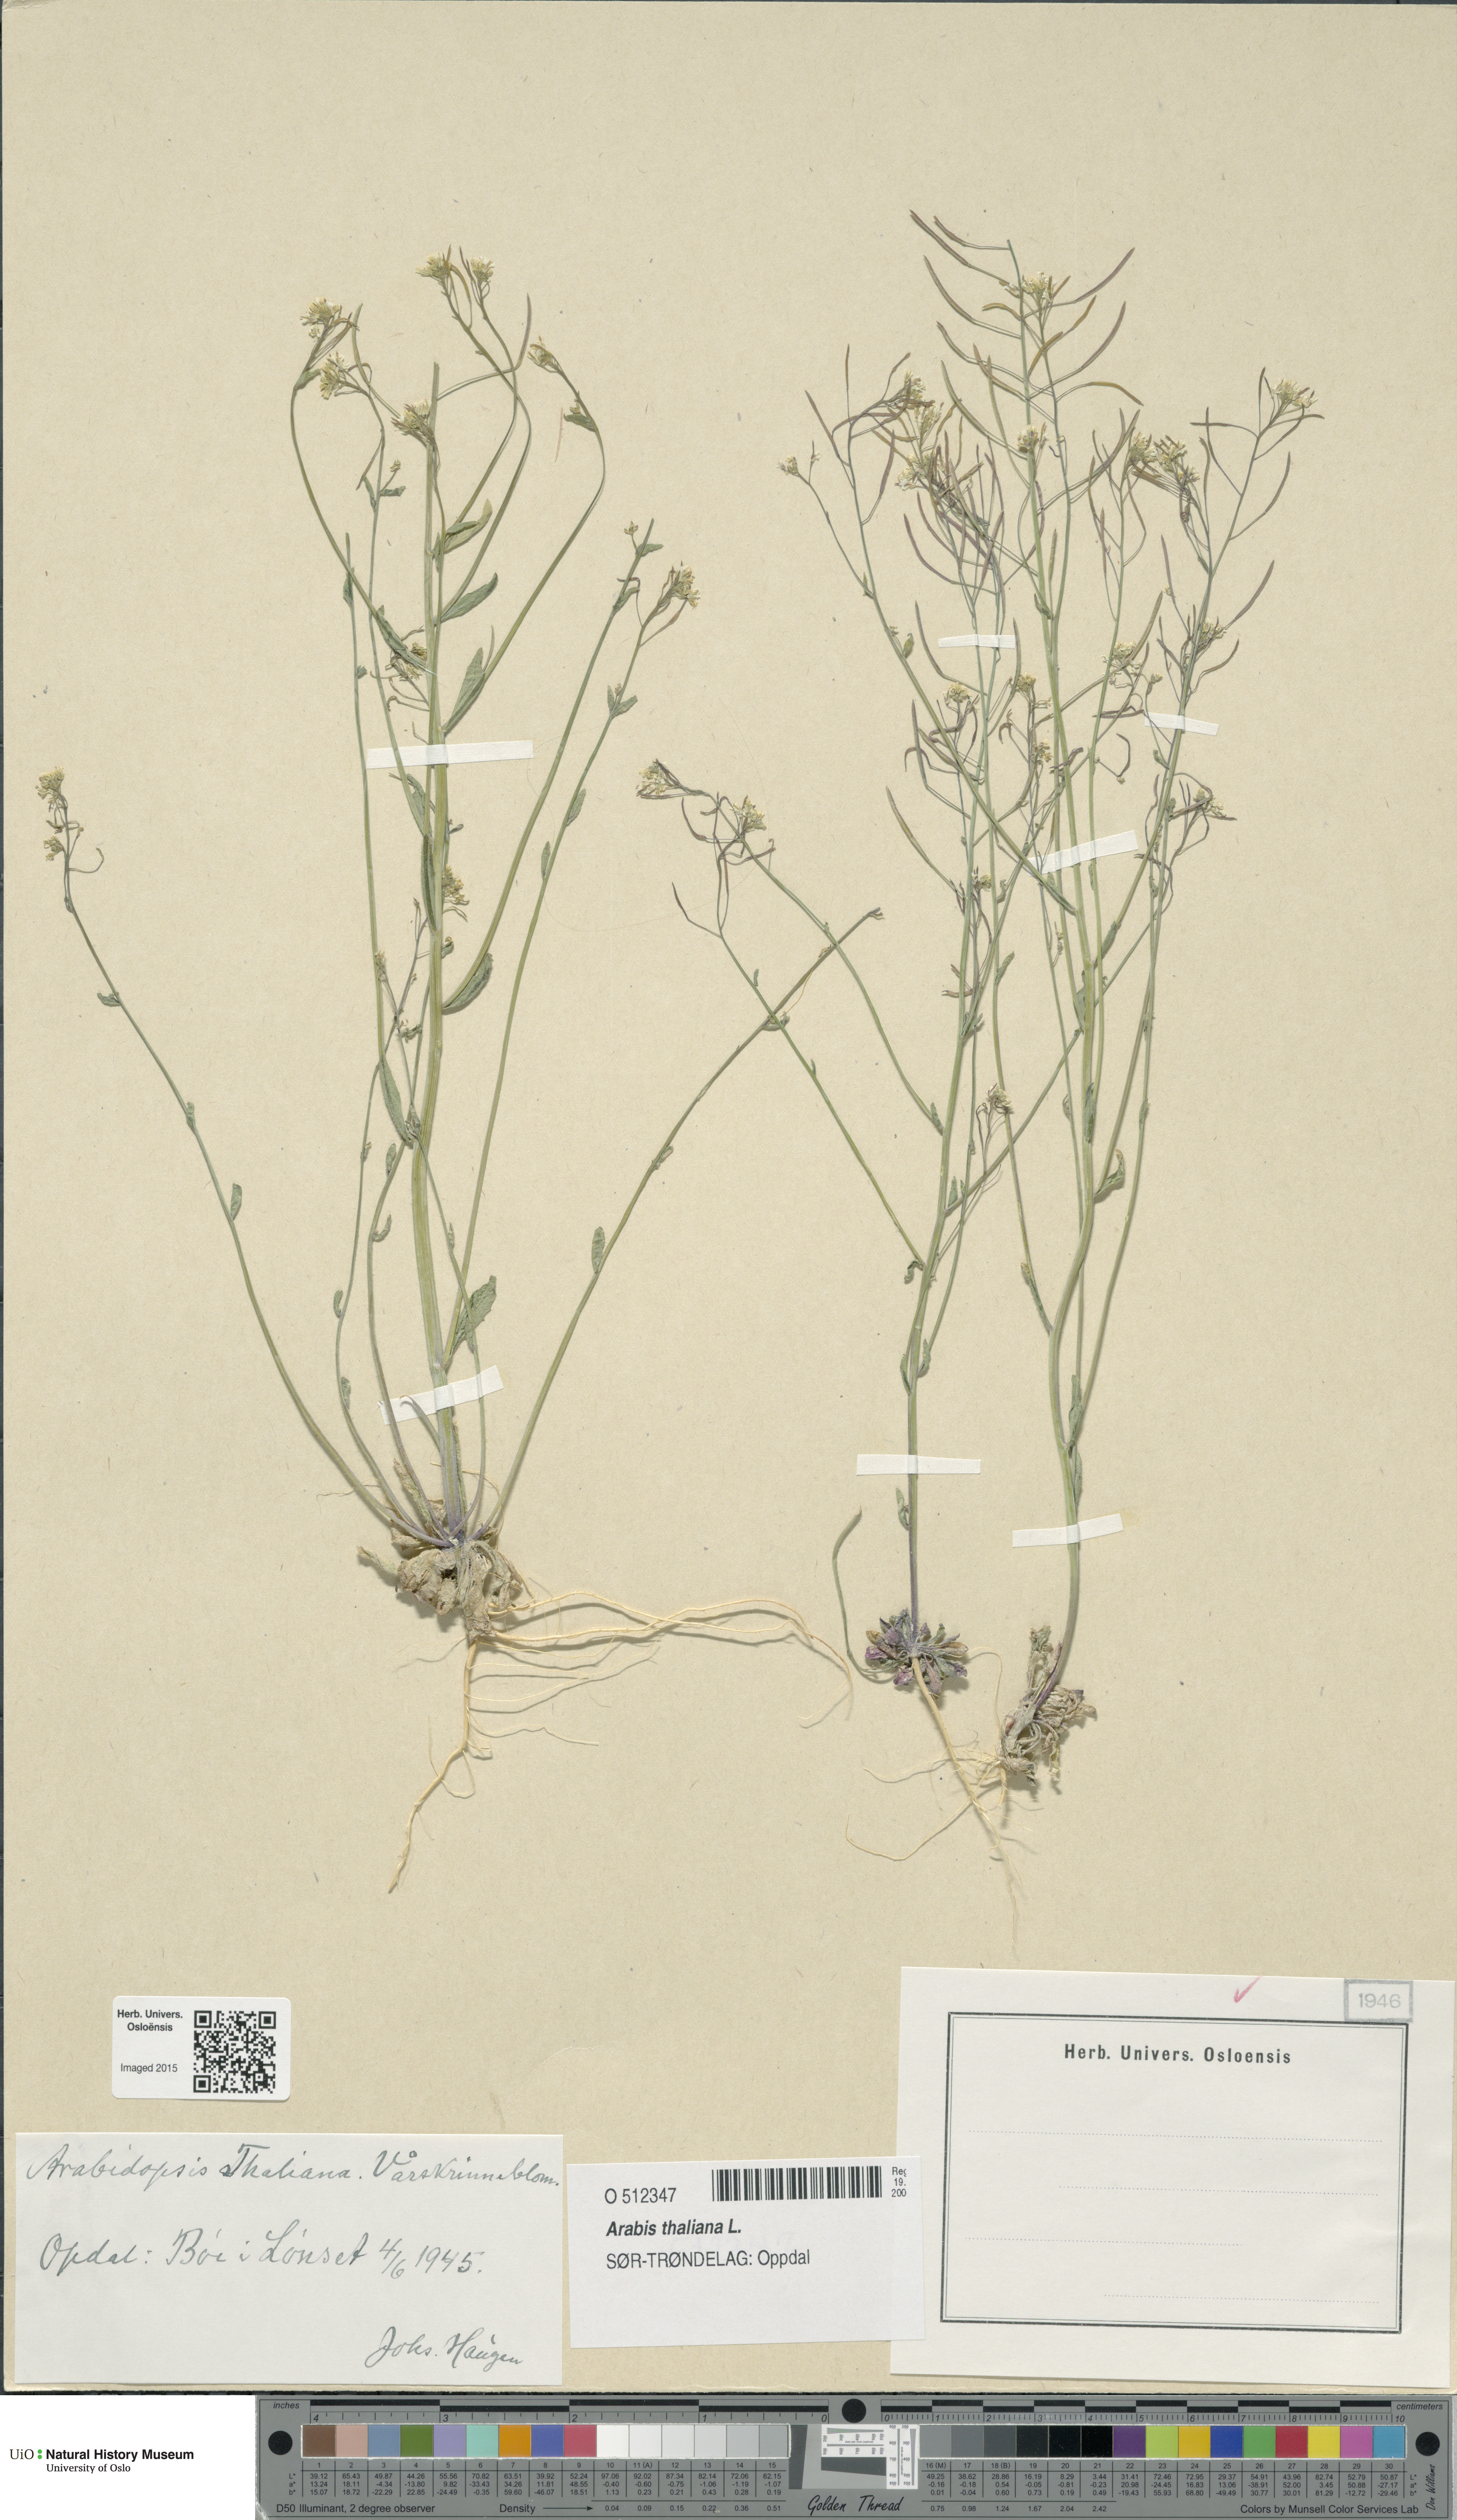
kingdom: Plantae
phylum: Tracheophyta
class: Magnoliopsida
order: Brassicales
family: Brassicaceae
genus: Arabidopsis
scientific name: Arabidopsis thaliana
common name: Thale cress
